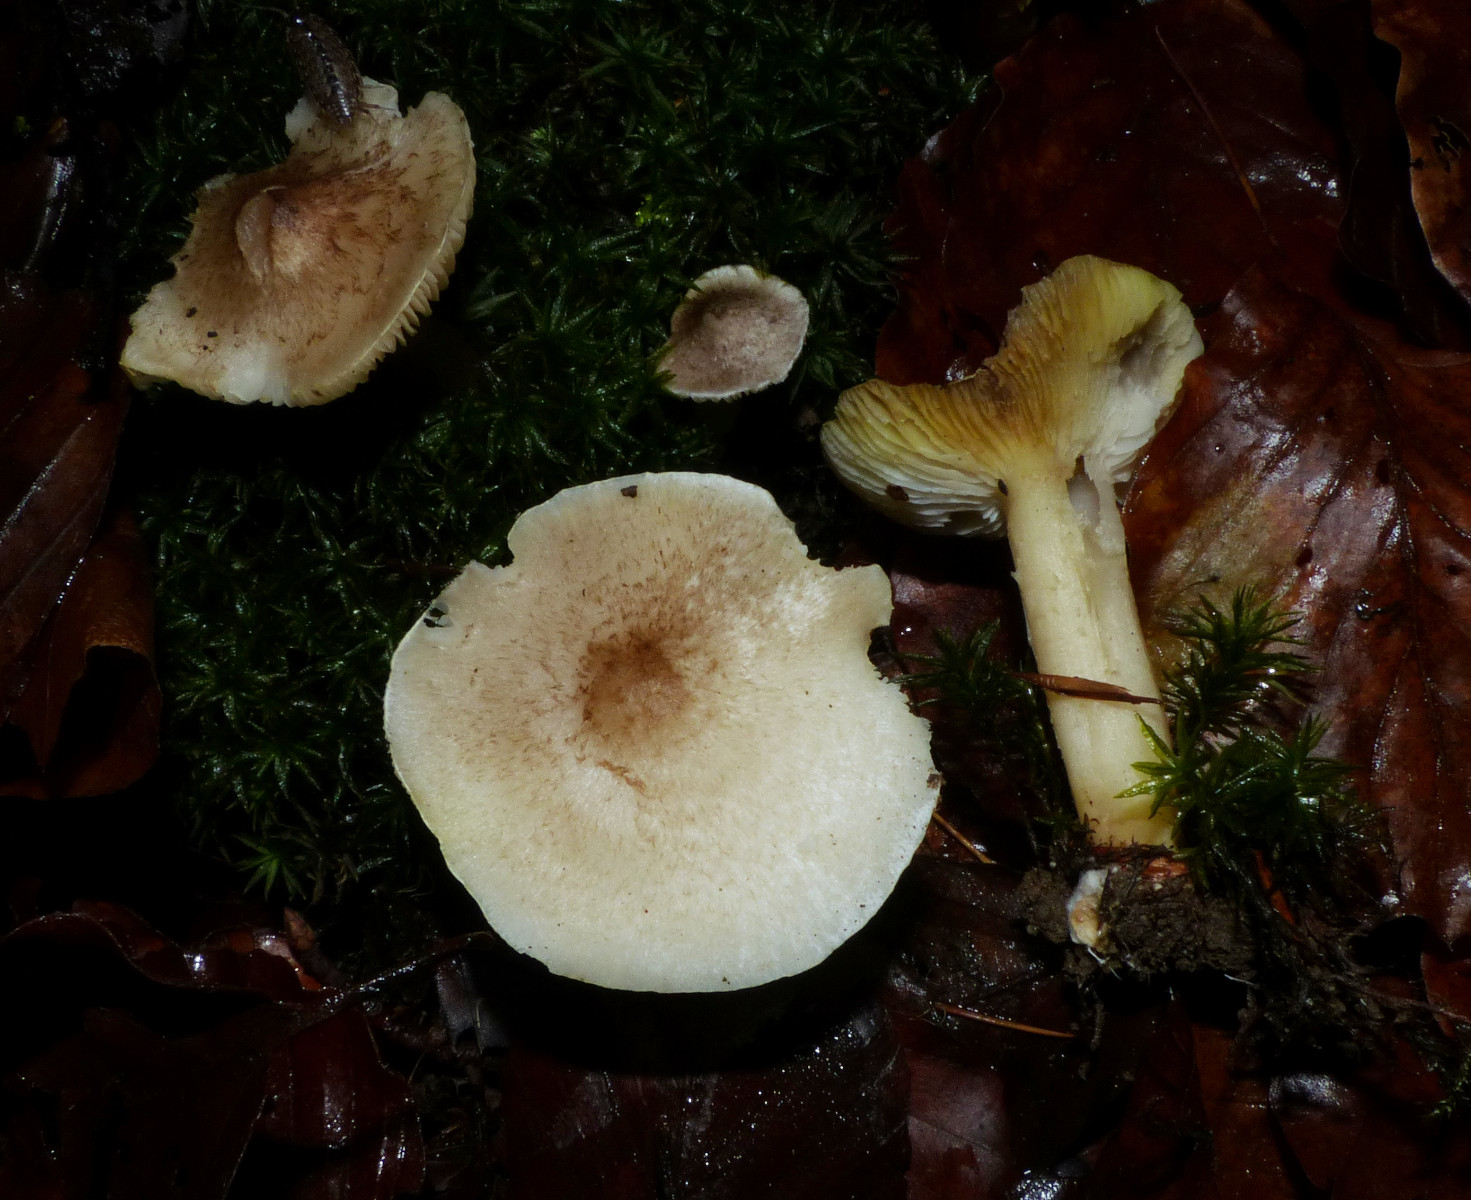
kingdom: Fungi
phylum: Basidiomycota
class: Agaricomycetes
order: Agaricales
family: Tricholomataceae
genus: Tricholoma
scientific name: Tricholoma scalpturatum
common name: gulplettet ridderhat
